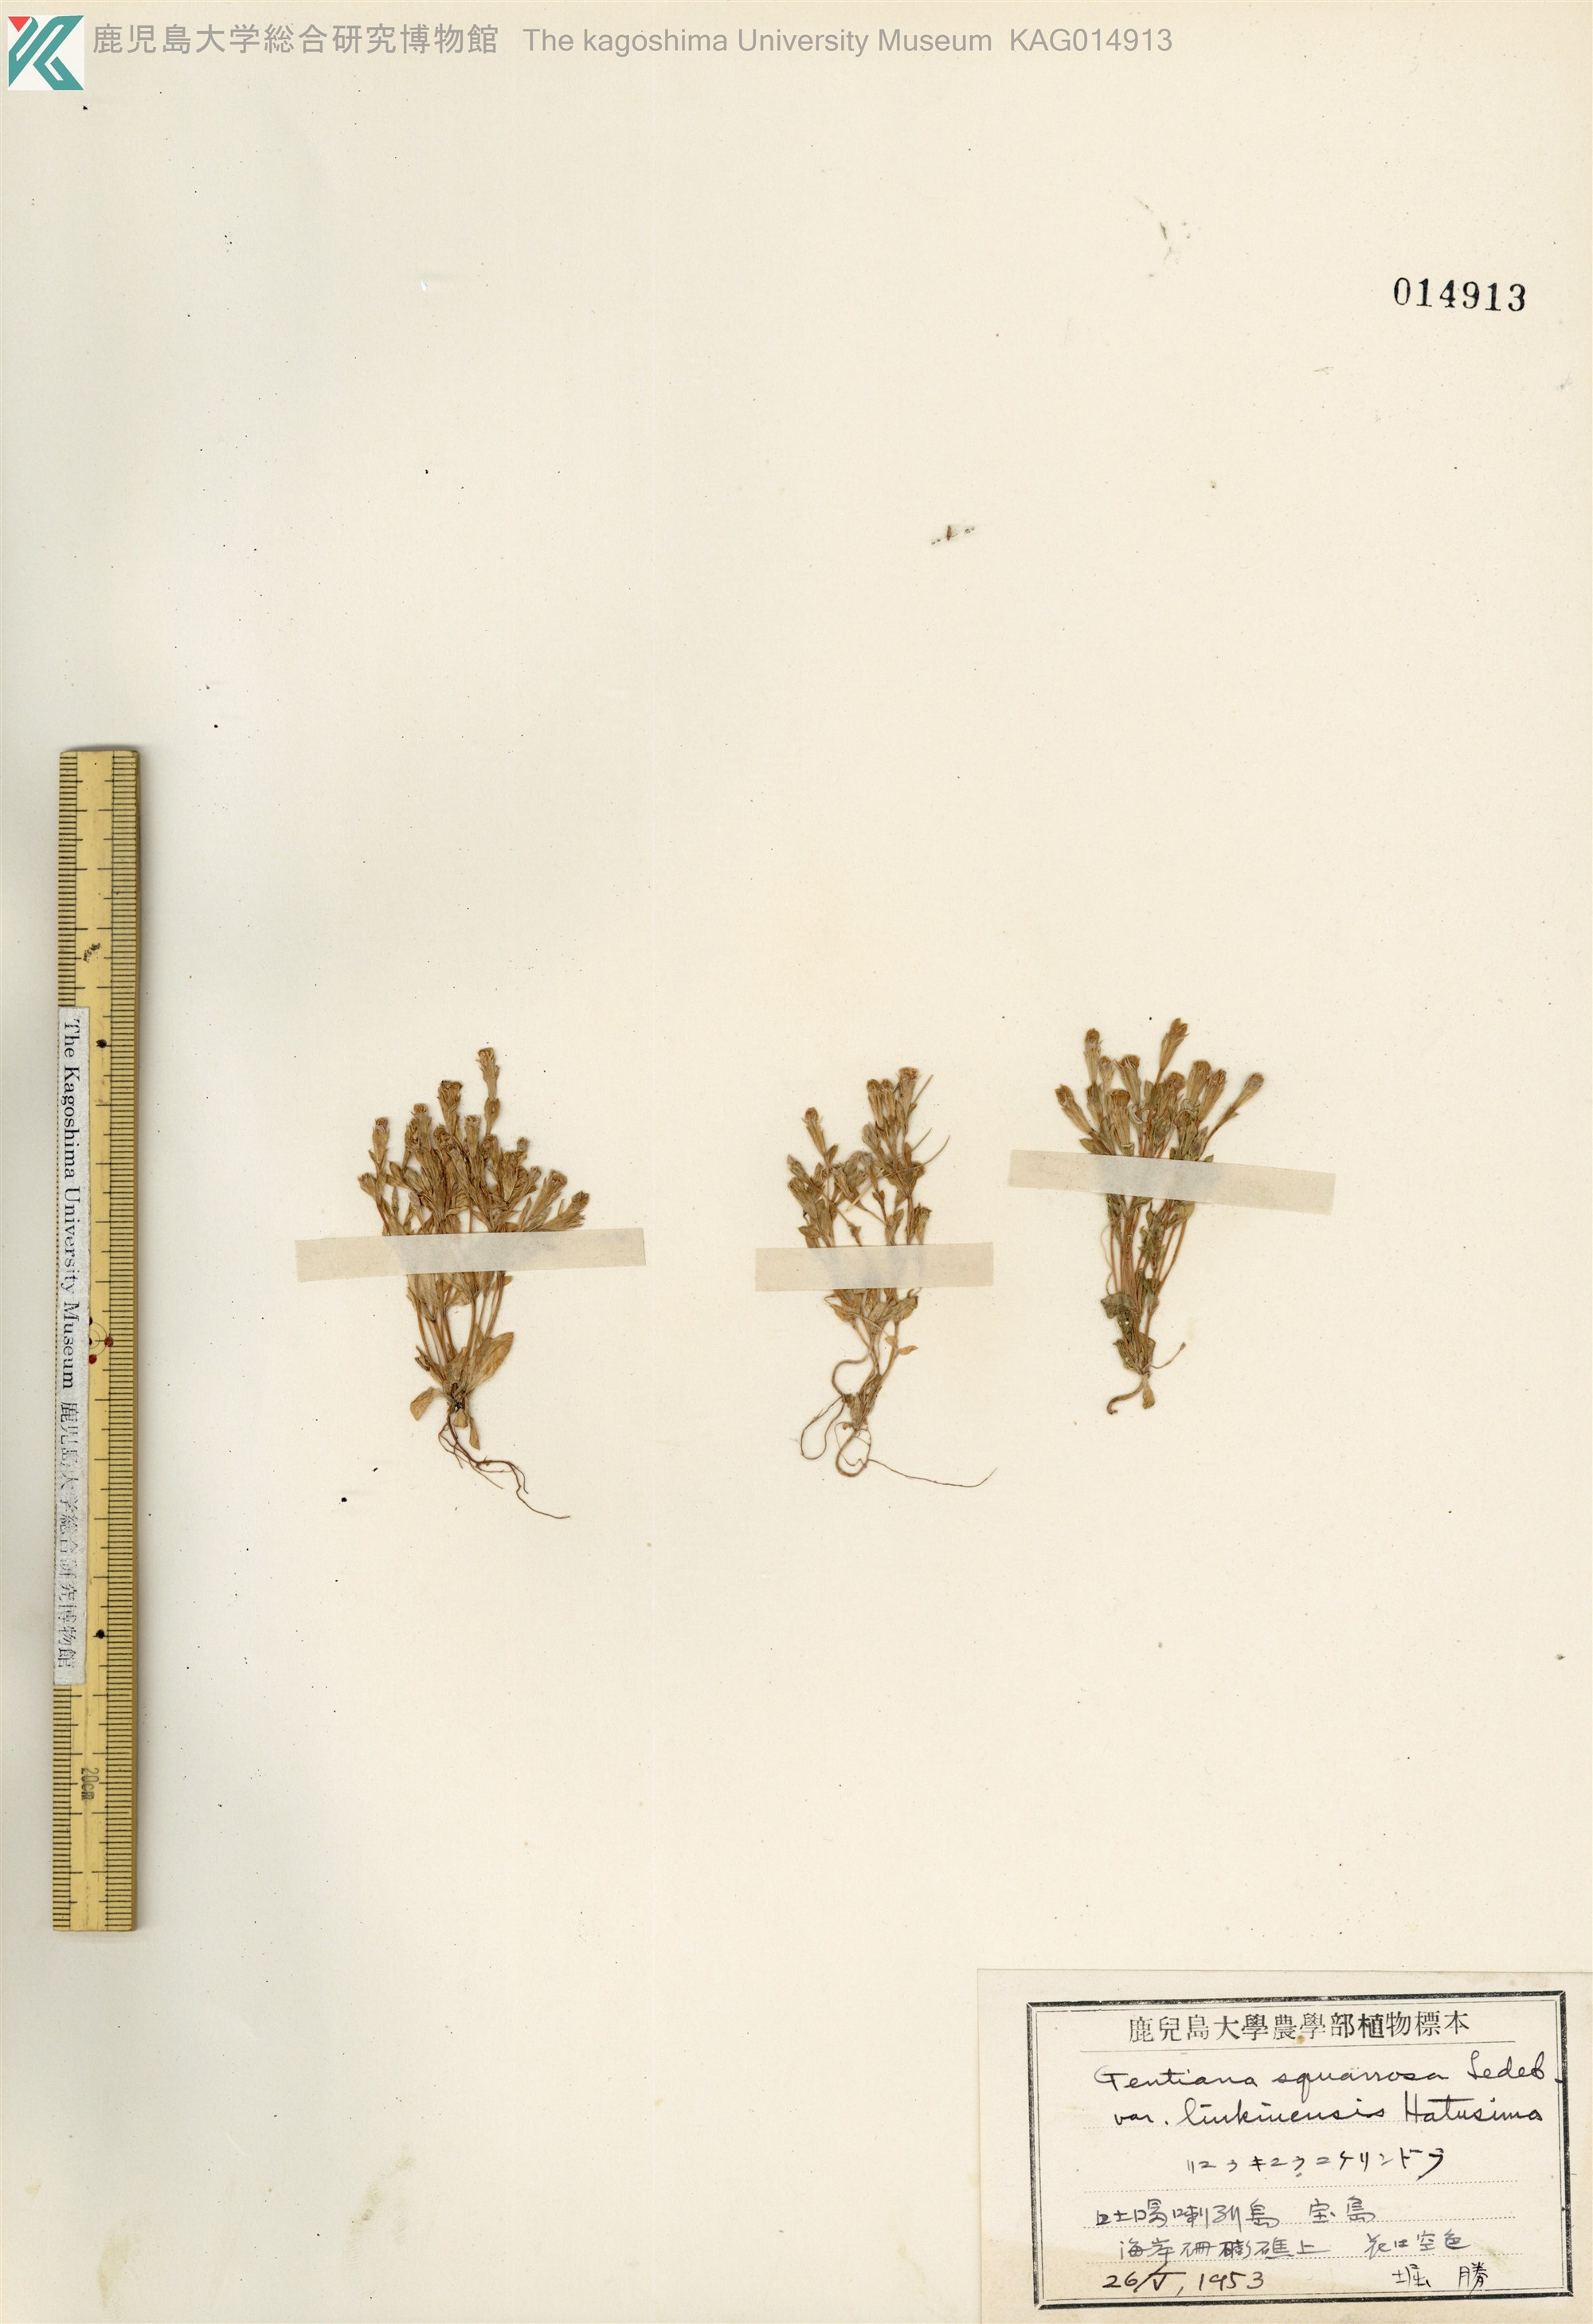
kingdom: Plantae
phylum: Tracheophyta
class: Magnoliopsida
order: Gentianales
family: Gentianaceae
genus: Gentiana
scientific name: Gentiana satsunanensis
